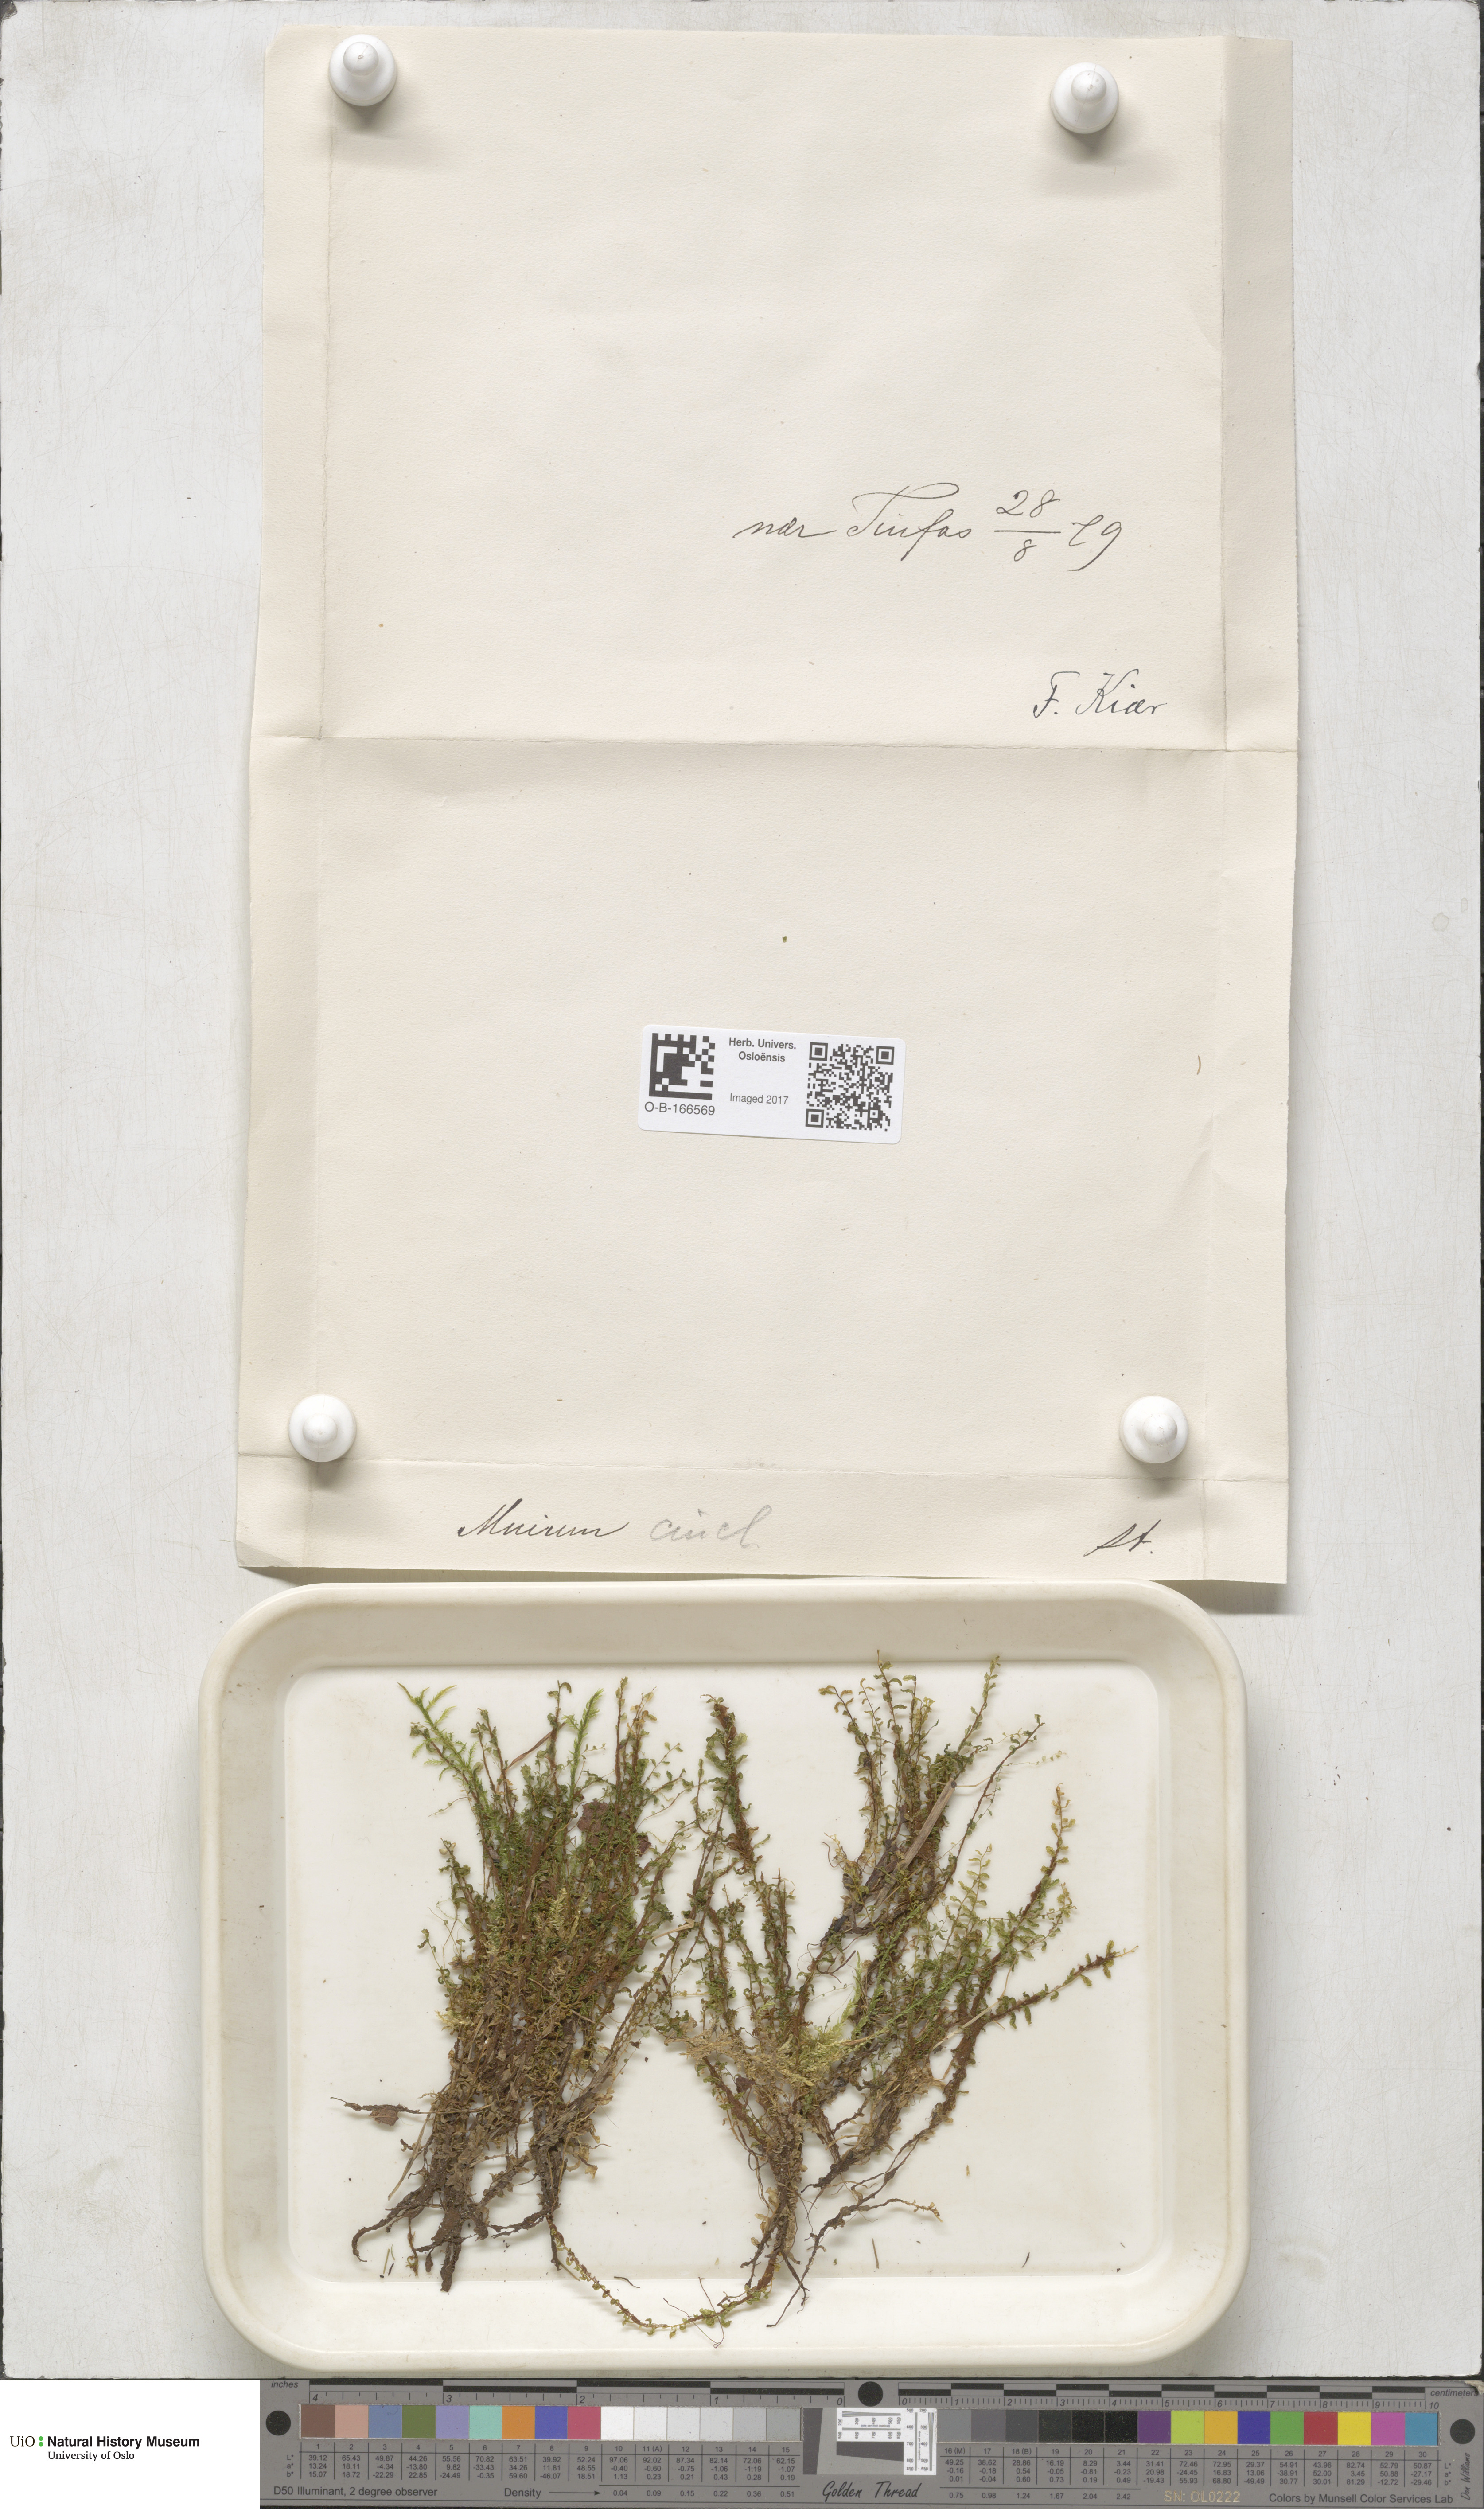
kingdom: Plantae
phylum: Bryophyta
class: Bryopsida
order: Bryales
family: Mniaceae
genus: Pseudobryum
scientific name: Pseudobryum cinclidioides
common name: River thyme moss
